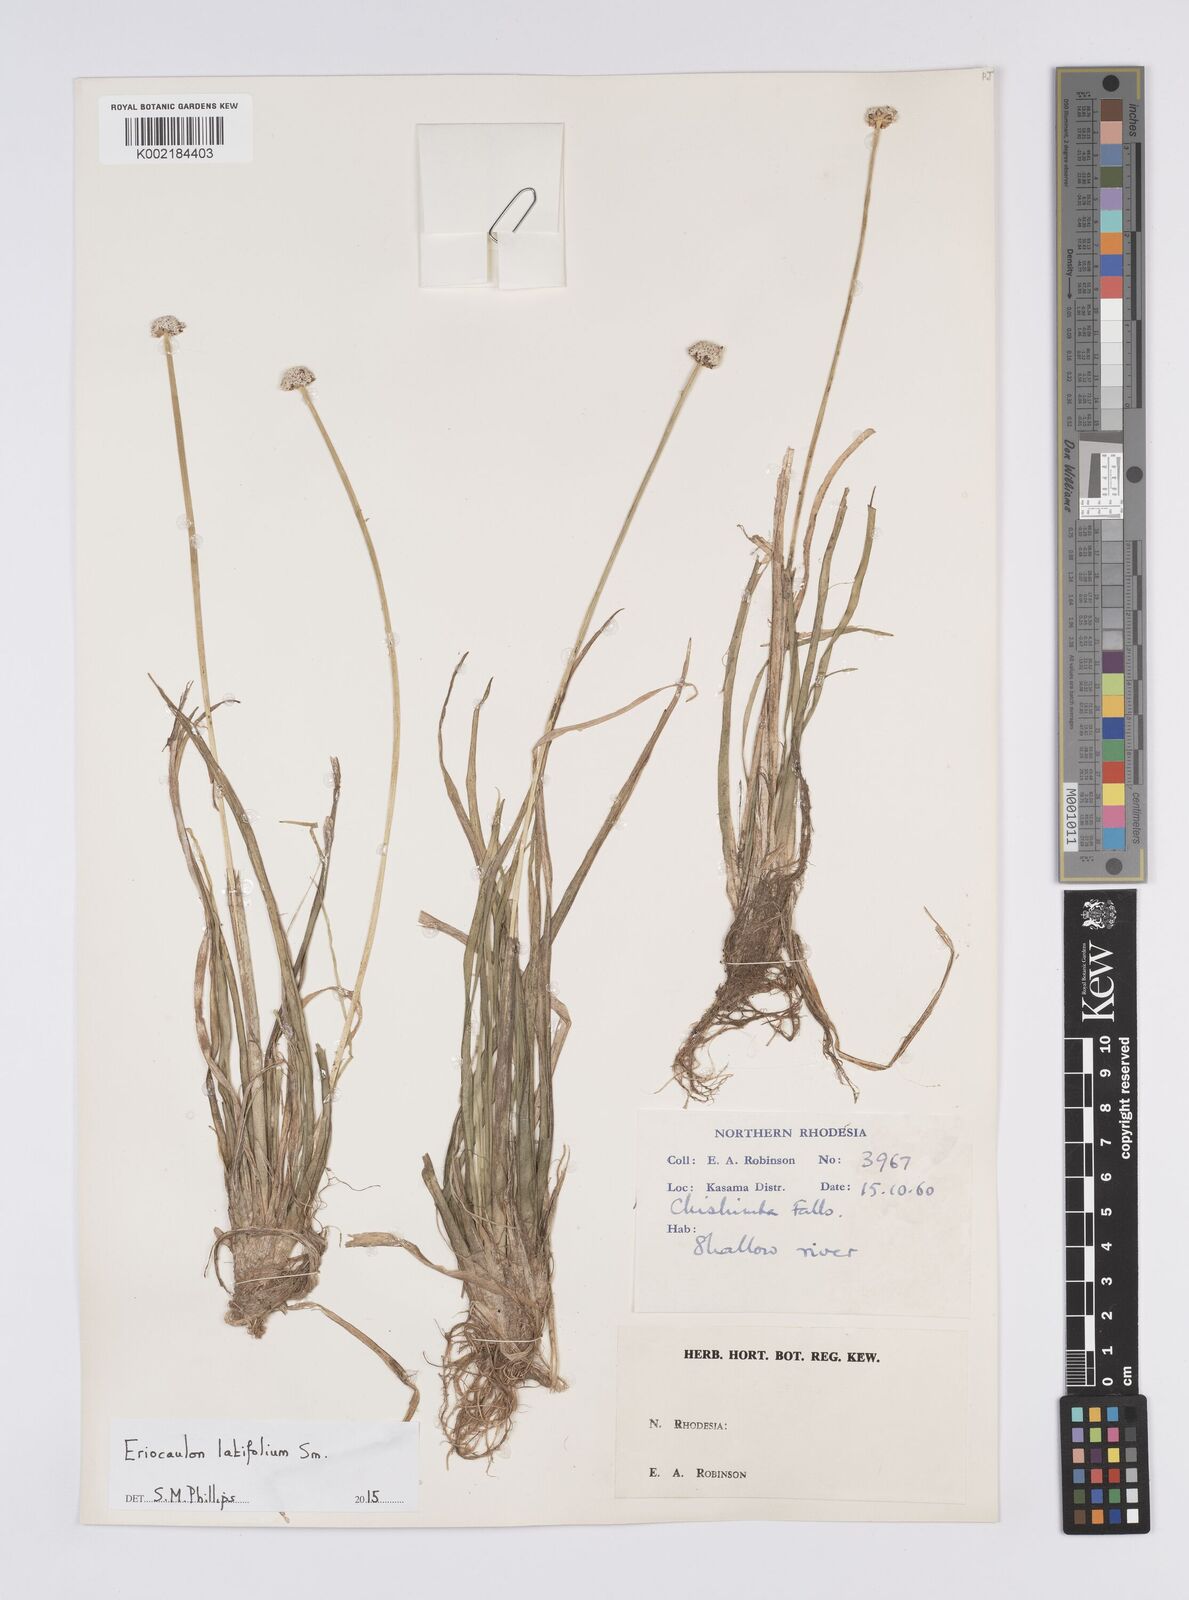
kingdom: Plantae
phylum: Tracheophyta
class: Liliopsida
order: Poales
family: Eriocaulaceae
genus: Eriocaulon
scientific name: Eriocaulon latifolium
